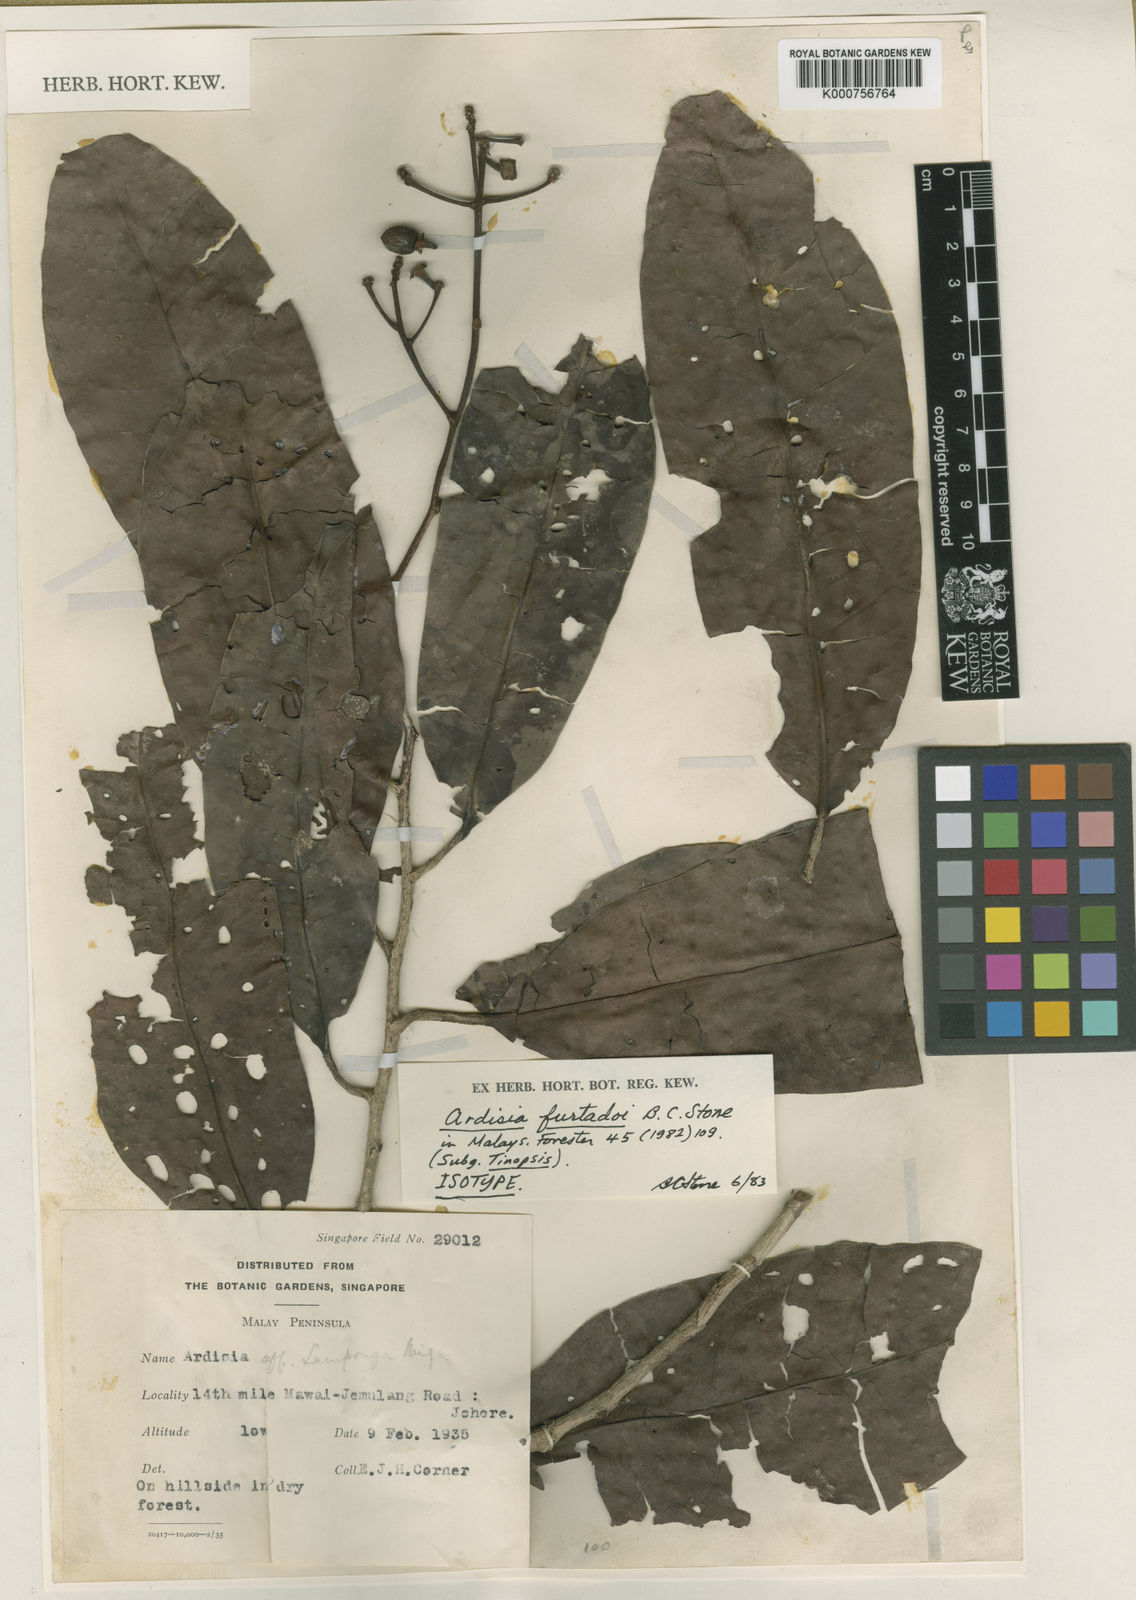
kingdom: Plantae
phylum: Tracheophyta
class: Magnoliopsida
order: Ericales
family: Primulaceae
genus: Ardisia
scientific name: Ardisia obscurinervia
